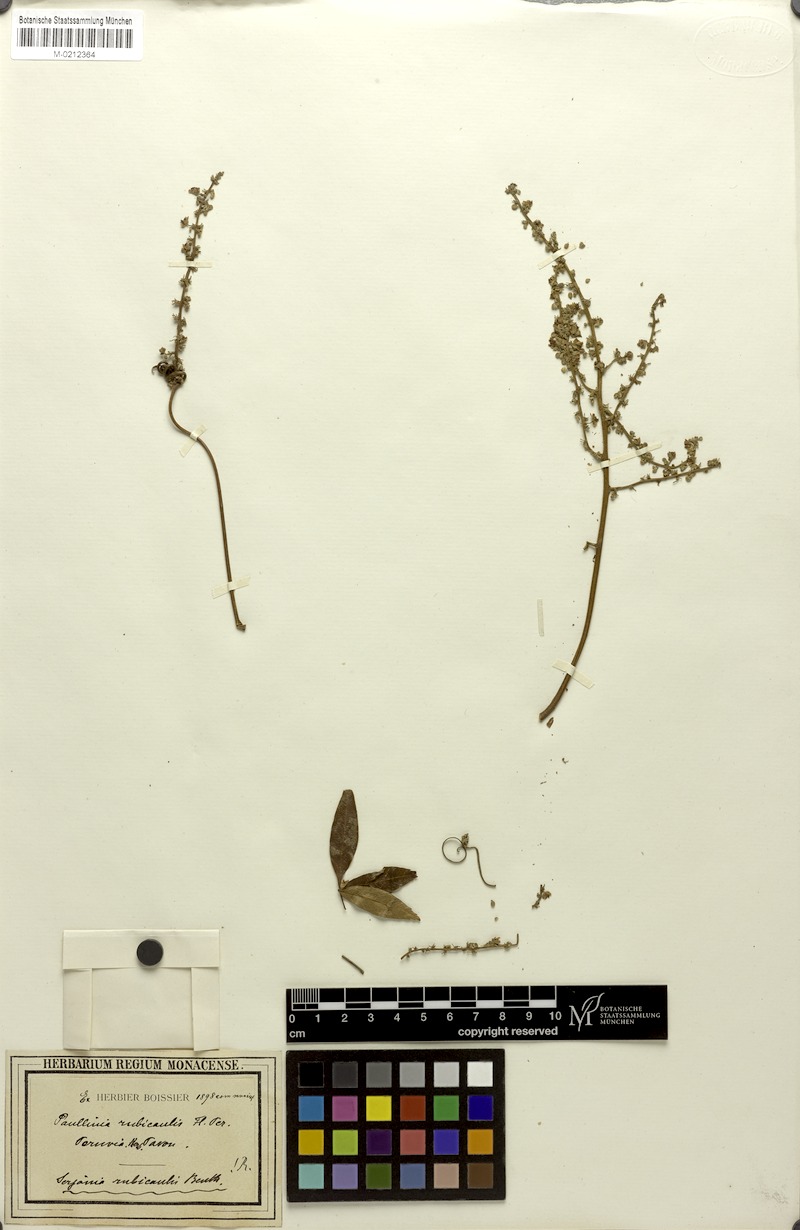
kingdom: Plantae
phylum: Tracheophyta
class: Magnoliopsida
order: Sapindales
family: Sapindaceae
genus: Serjania
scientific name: Serjania rubicaulis
